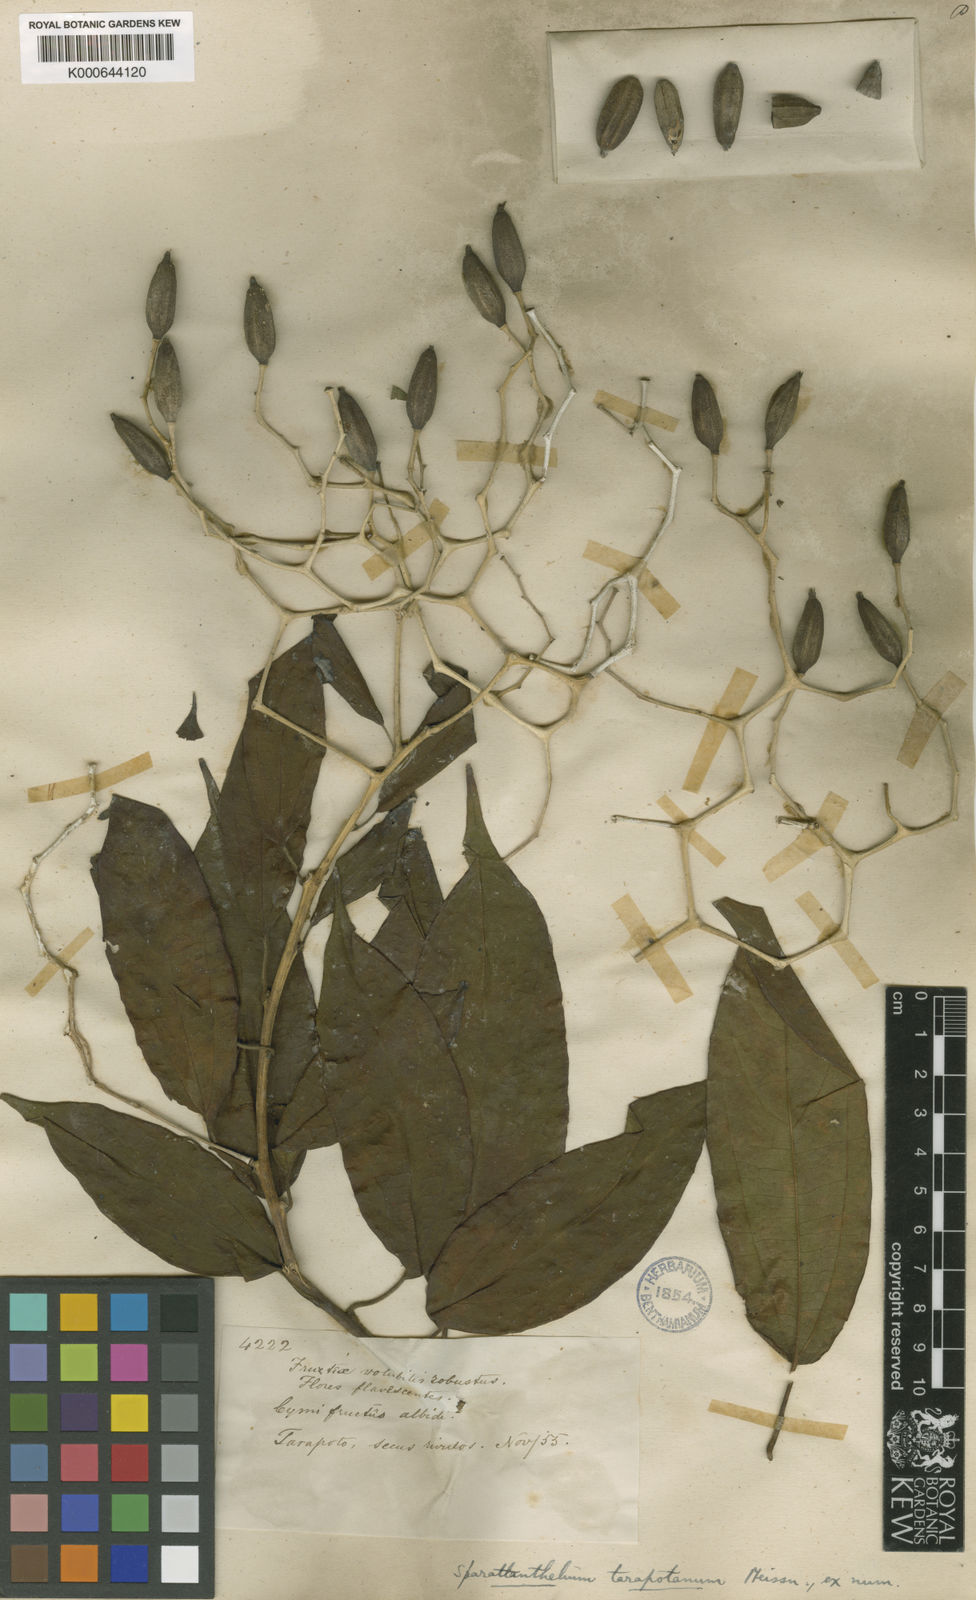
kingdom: Plantae
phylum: Tracheophyta
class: Magnoliopsida
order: Laurales
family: Hernandiaceae
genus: Sparattanthelium
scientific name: Sparattanthelium tarapotanum
